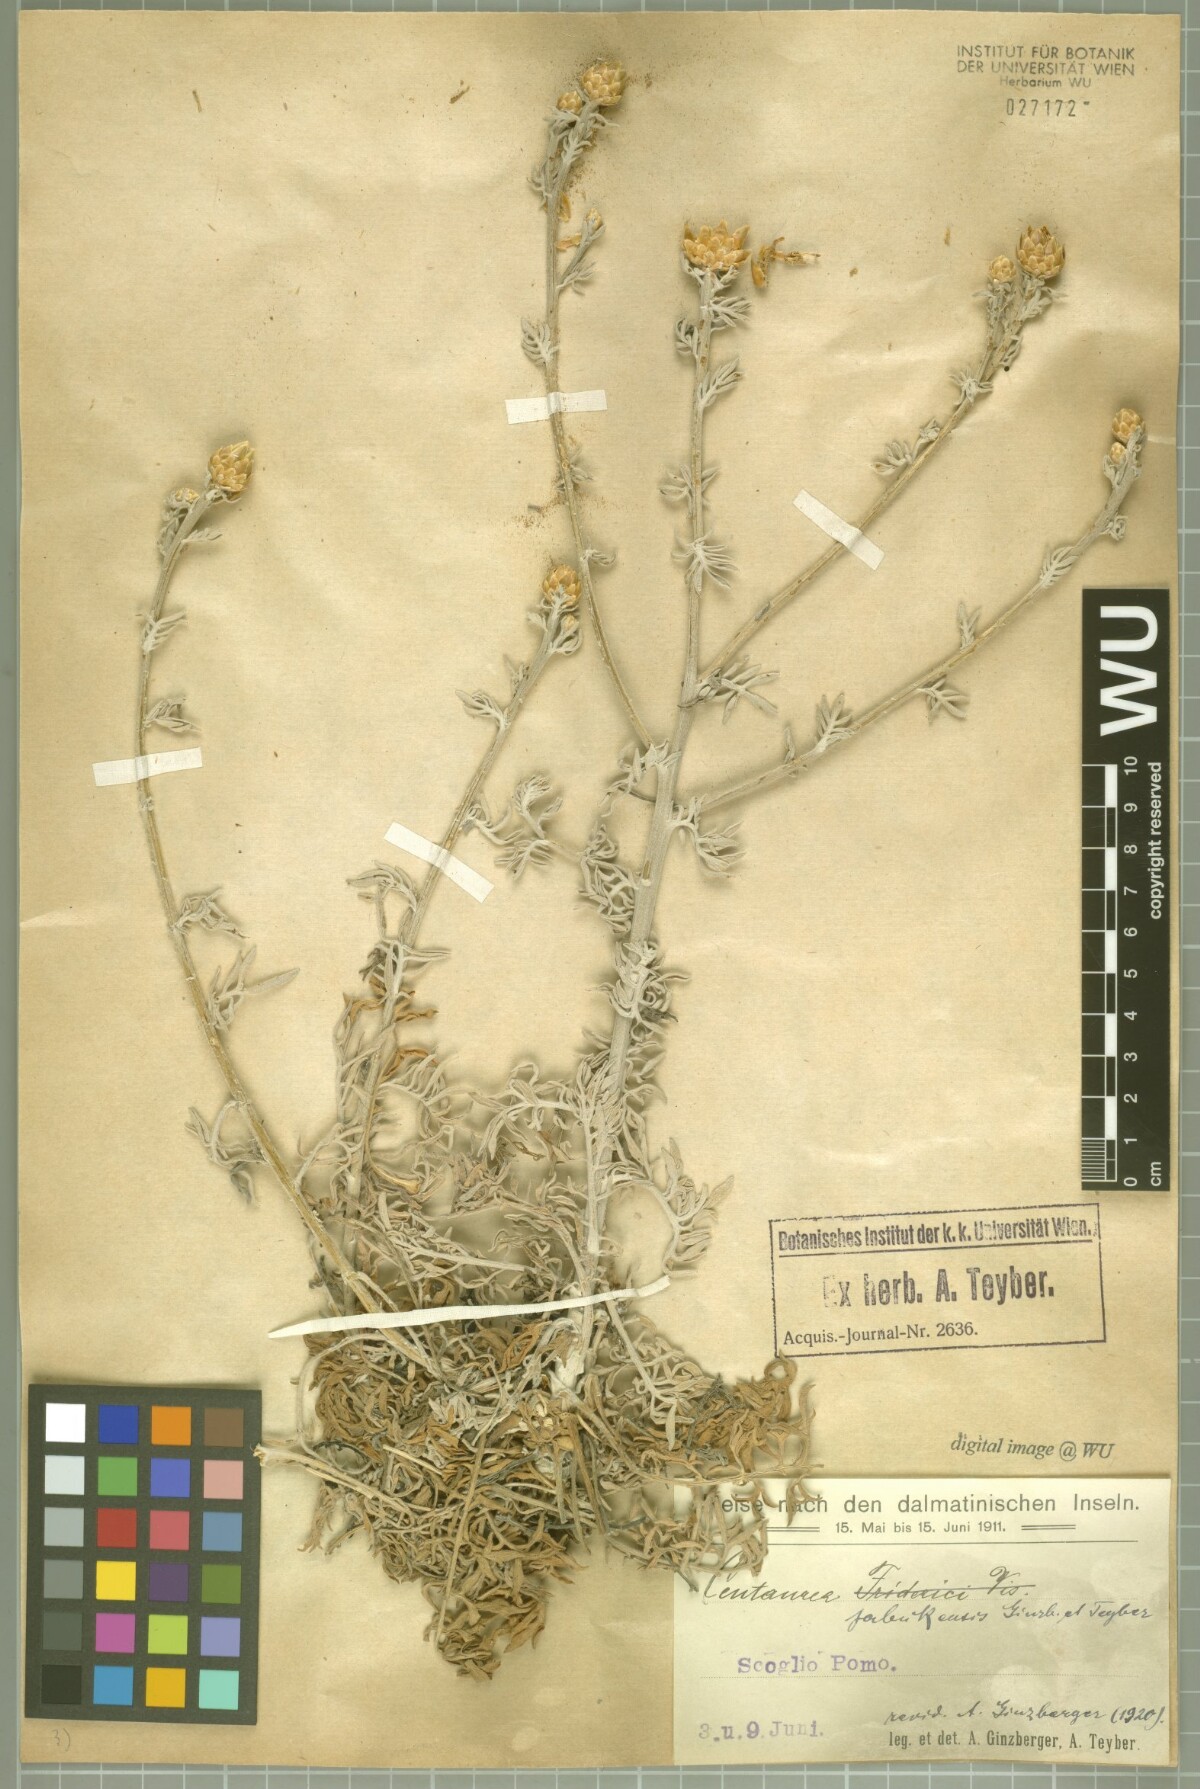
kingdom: Plantae
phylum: Tracheophyta
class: Magnoliopsida
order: Asterales
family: Asteraceae
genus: Centaurea
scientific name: Centaurea friderici
